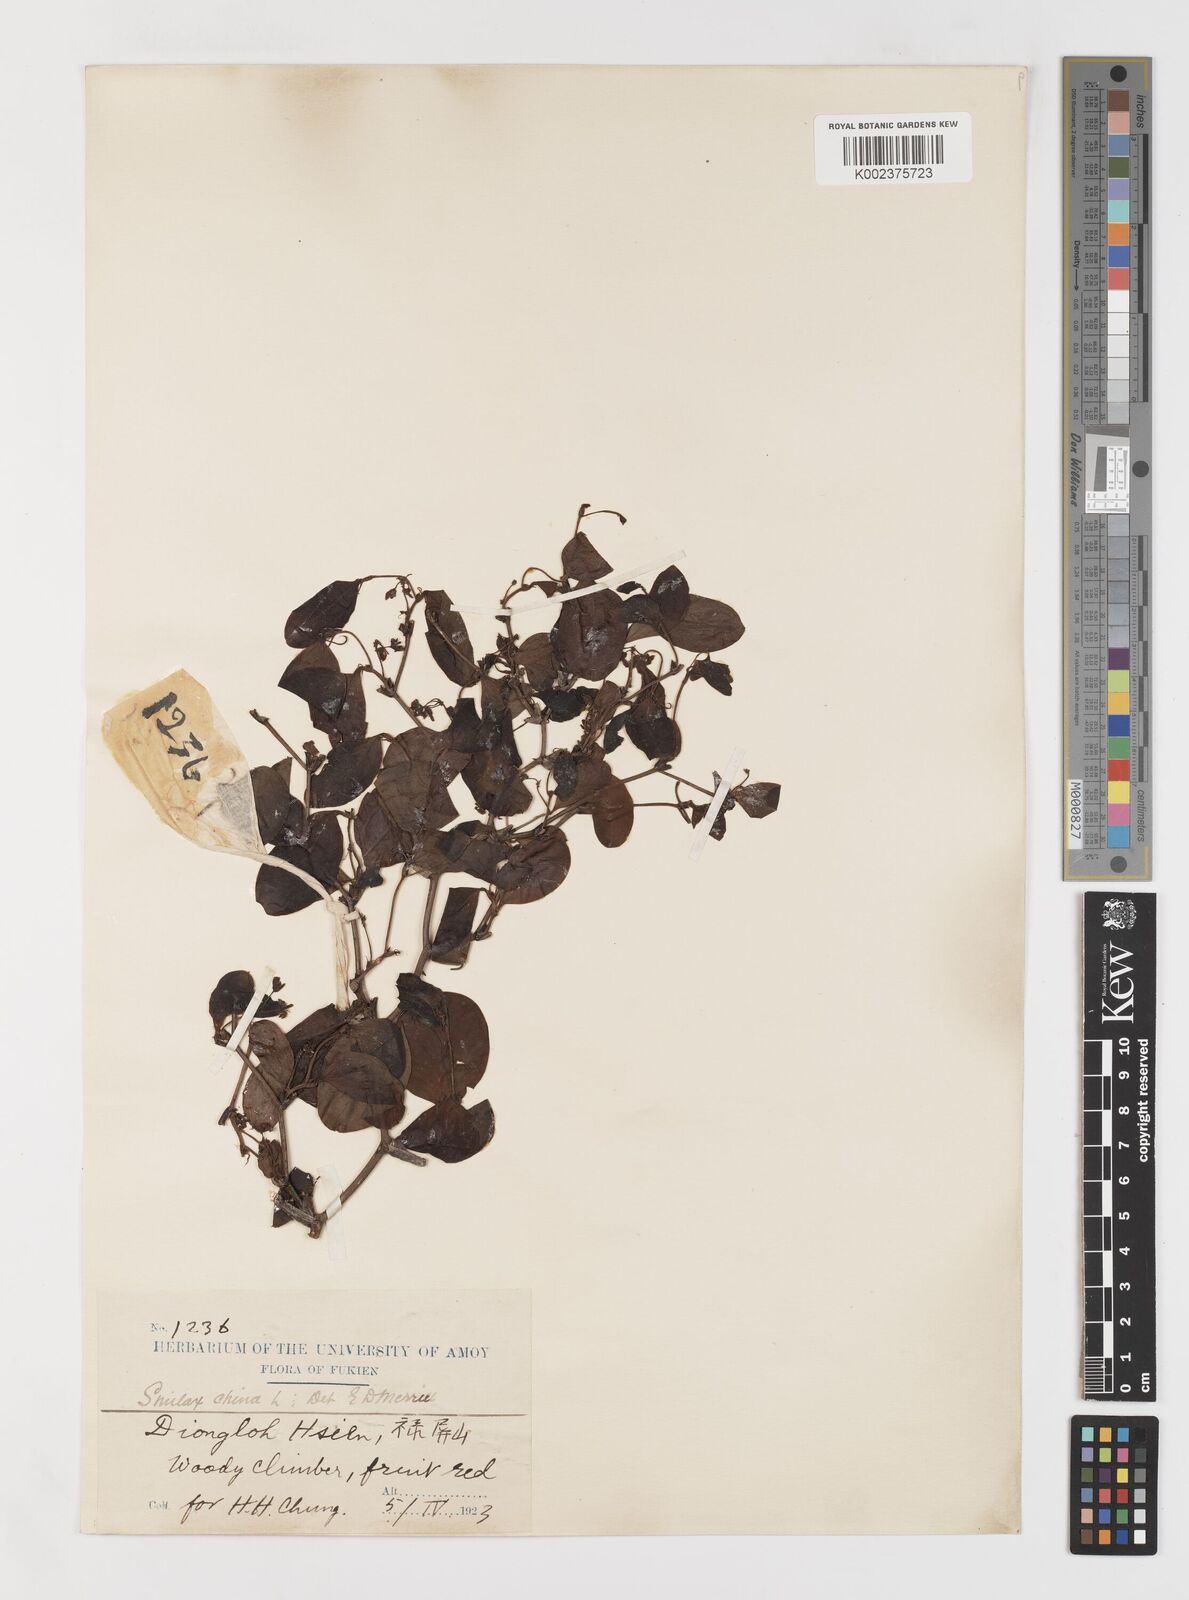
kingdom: Plantae
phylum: Tracheophyta
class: Liliopsida
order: Liliales
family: Smilacaceae
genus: Smilax
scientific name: Smilax
